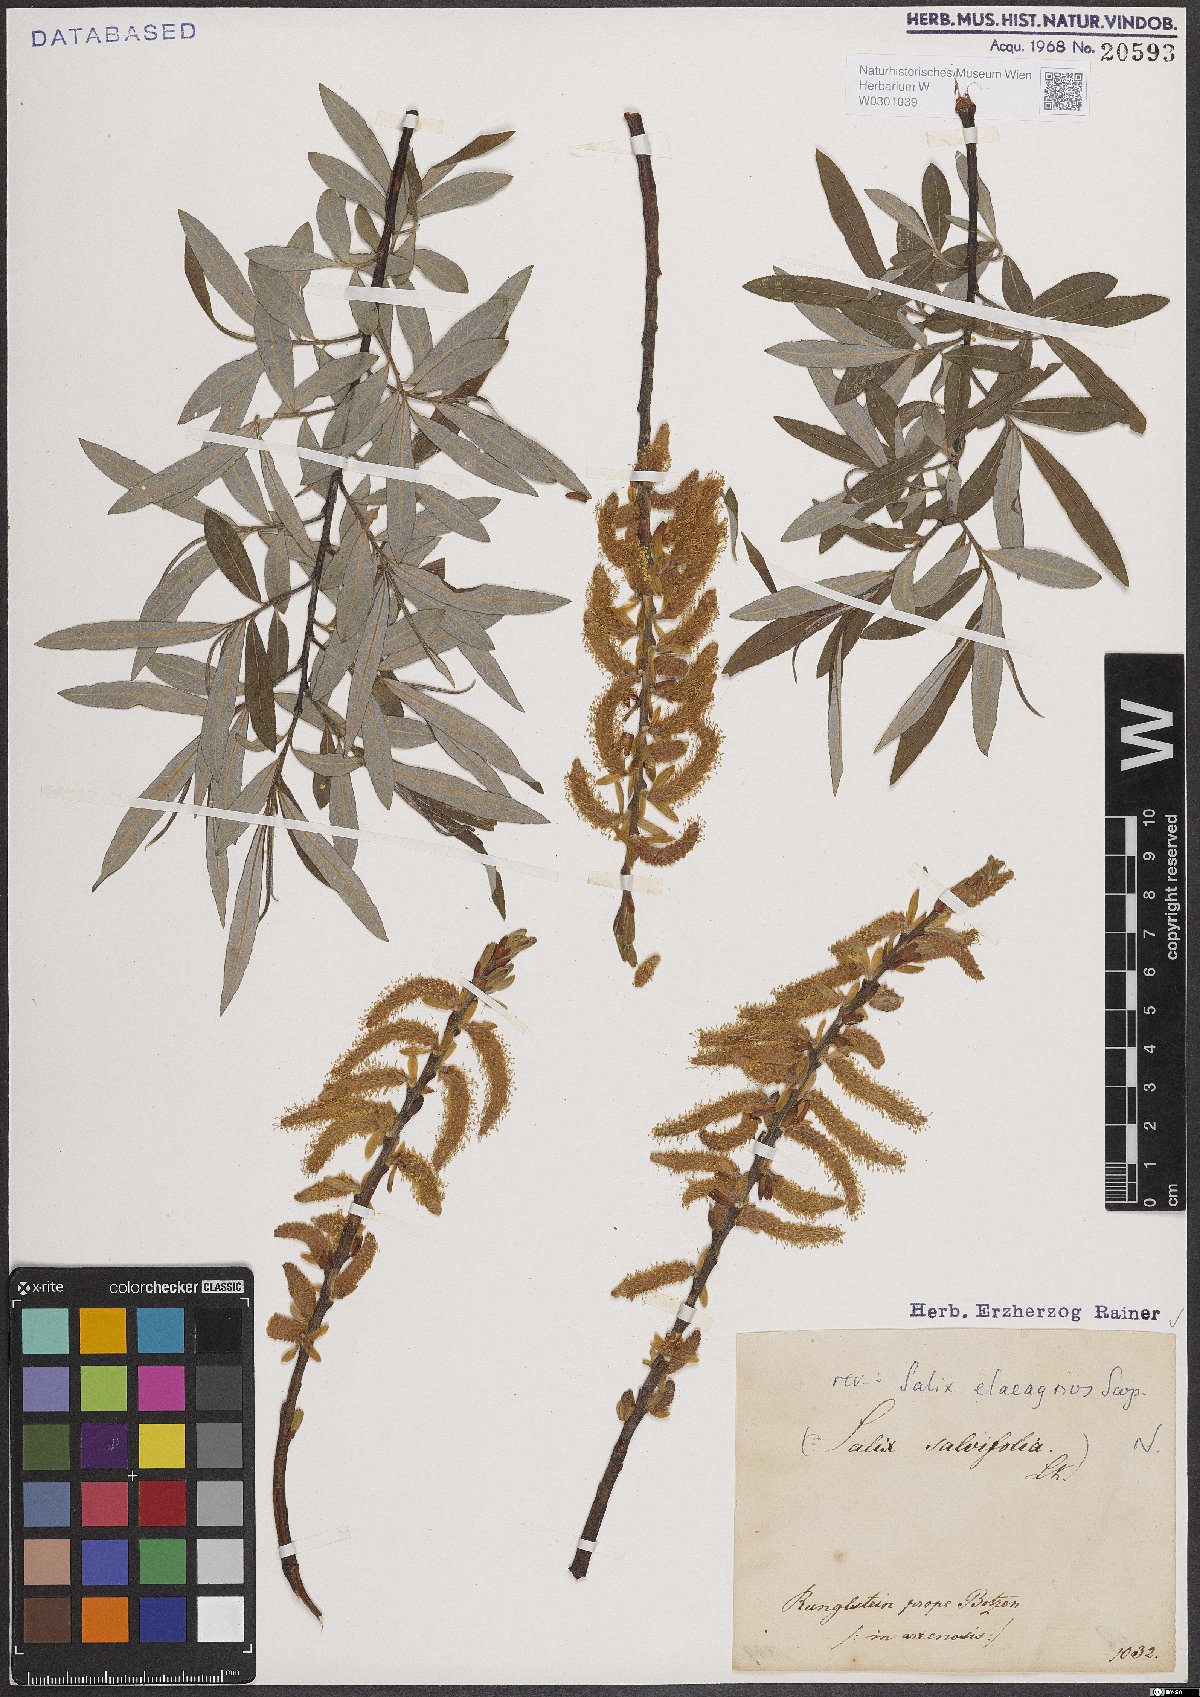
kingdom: Plantae
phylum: Tracheophyta
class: Magnoliopsida
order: Malpighiales
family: Salicaceae
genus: Salix
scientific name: Salix eleagnos
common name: Elaeagnus willow
